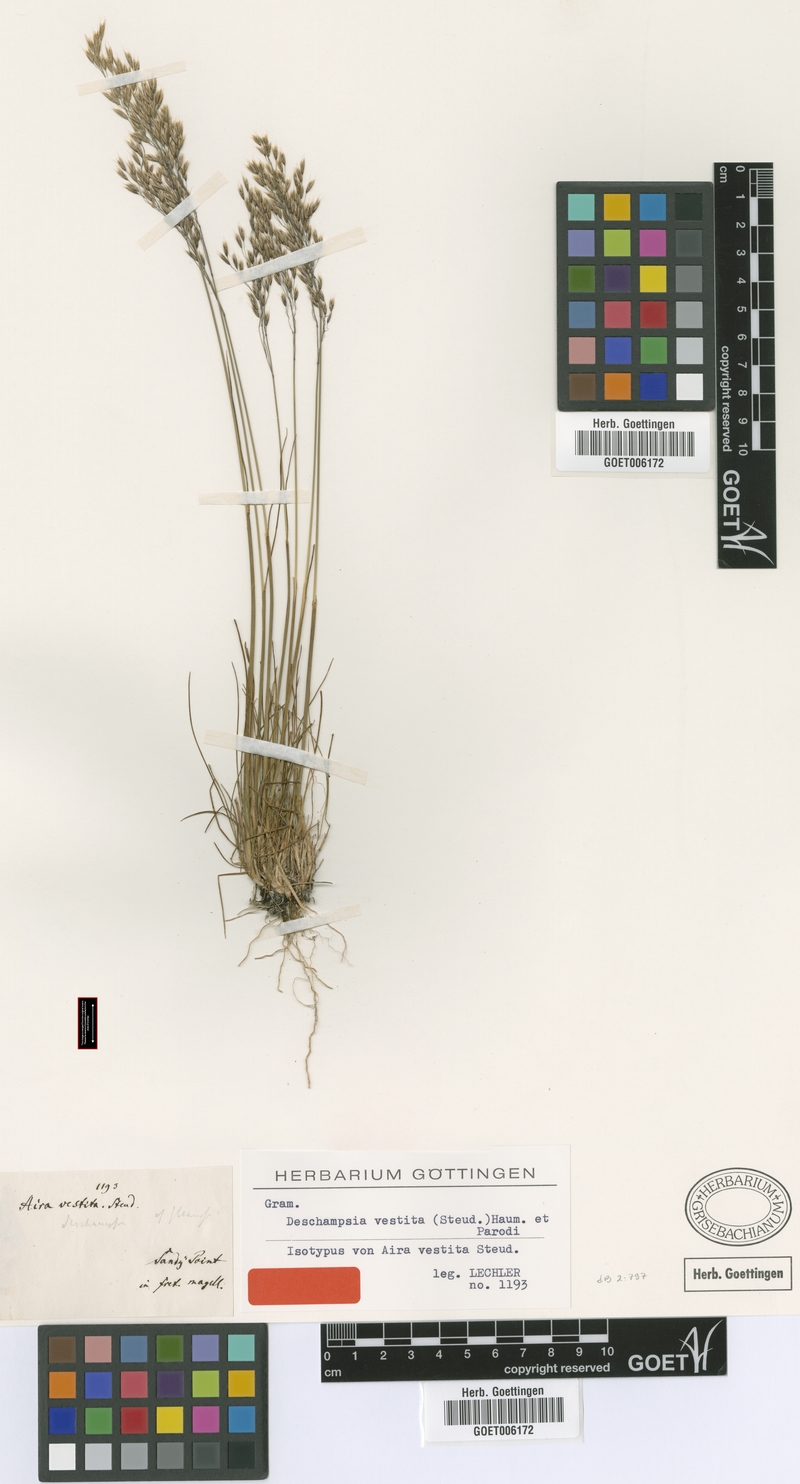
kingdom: Plantae
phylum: Tracheophyta
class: Liliopsida
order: Poales
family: Poaceae
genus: Avenella
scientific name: Avenella flexuosa
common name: Wavy hairgrass
